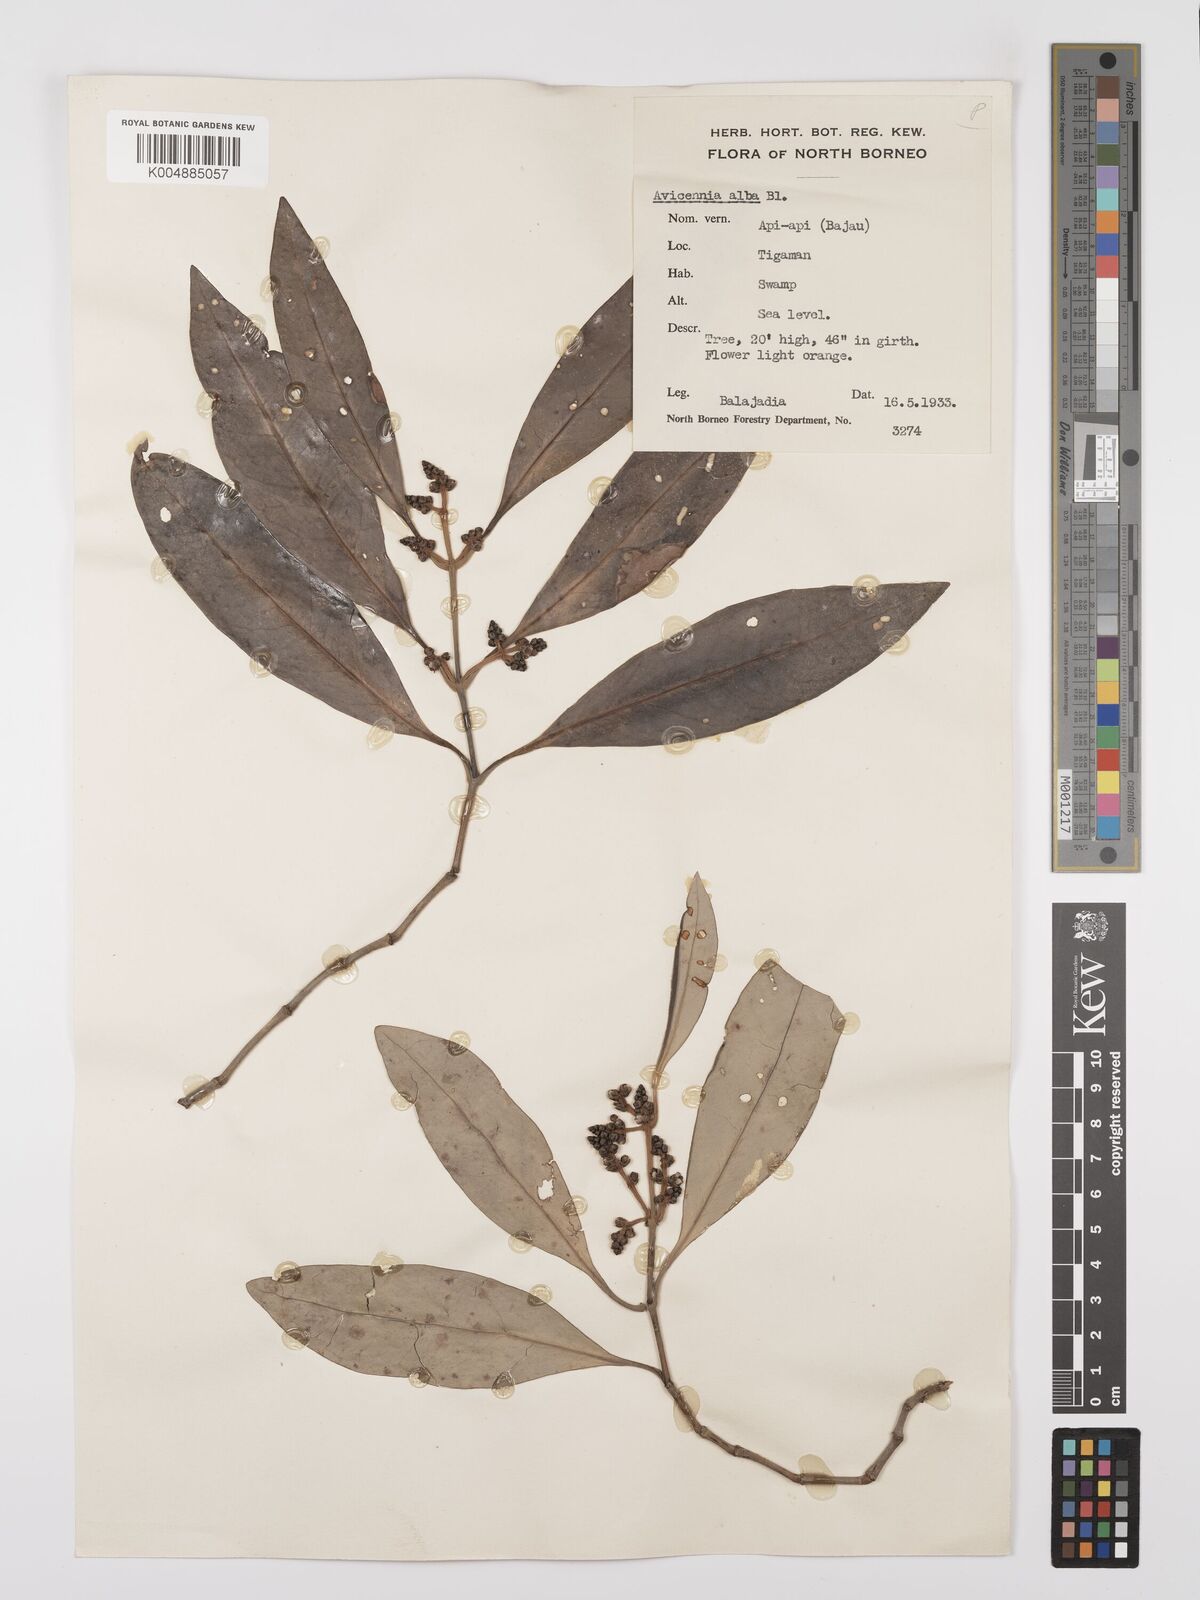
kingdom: Plantae
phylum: Tracheophyta
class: Magnoliopsida
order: Lamiales
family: Acanthaceae
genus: Avicennia
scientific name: Avicennia alba
